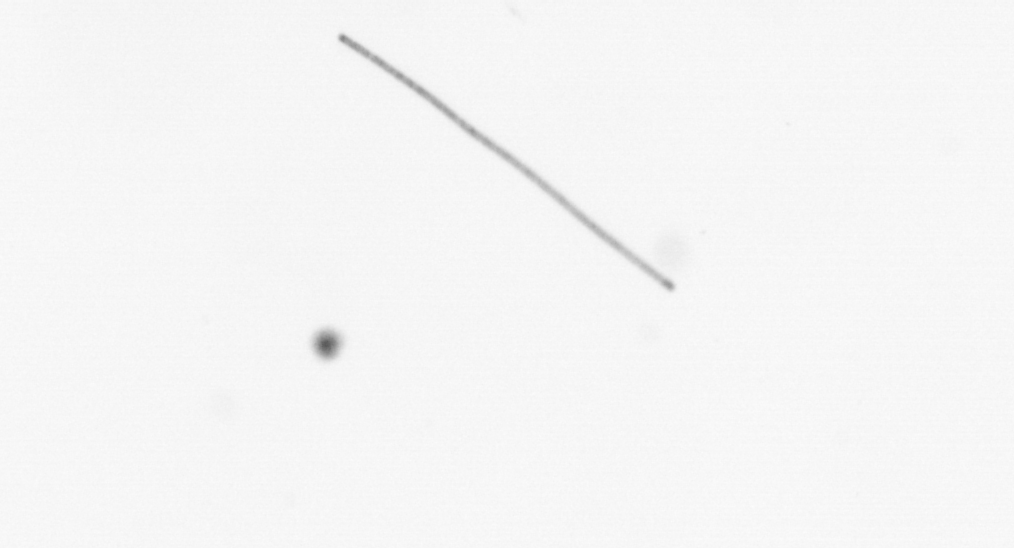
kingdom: Chromista
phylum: Ochrophyta
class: Bacillariophyceae
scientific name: Bacillariophyceae
